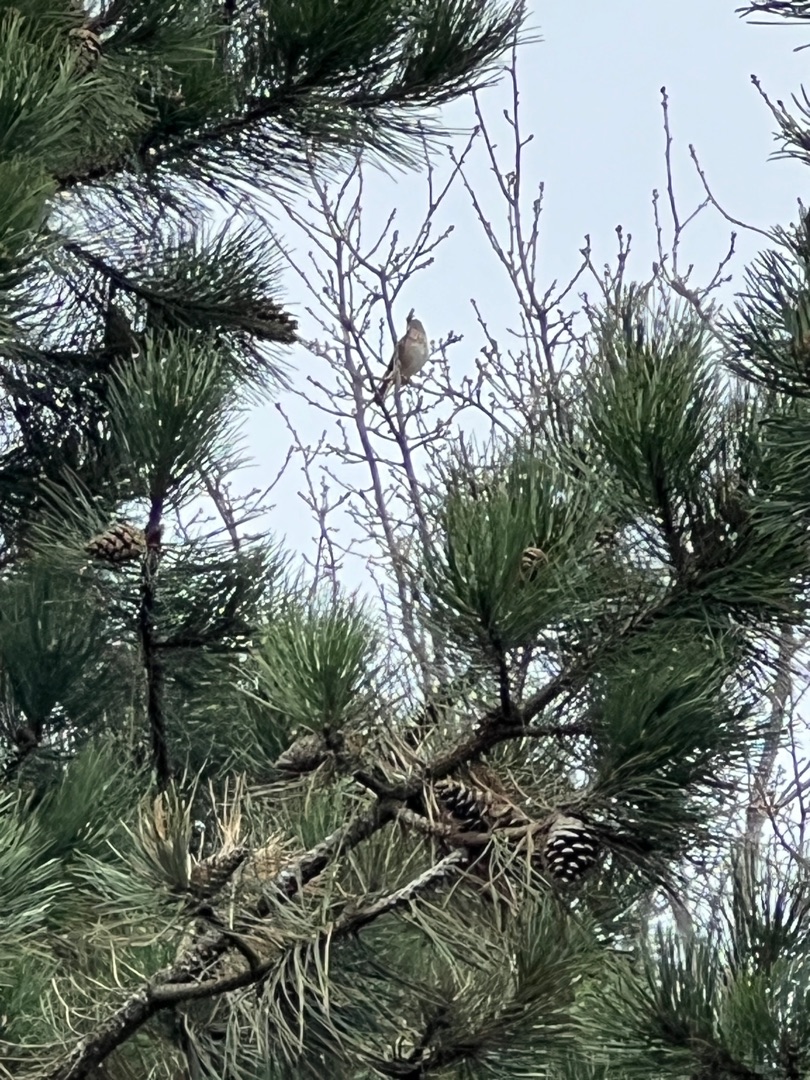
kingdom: Animalia
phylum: Chordata
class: Aves
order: Passeriformes
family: Sylviidae
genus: Sylvia
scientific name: Sylvia curruca
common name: Gærdesanger
